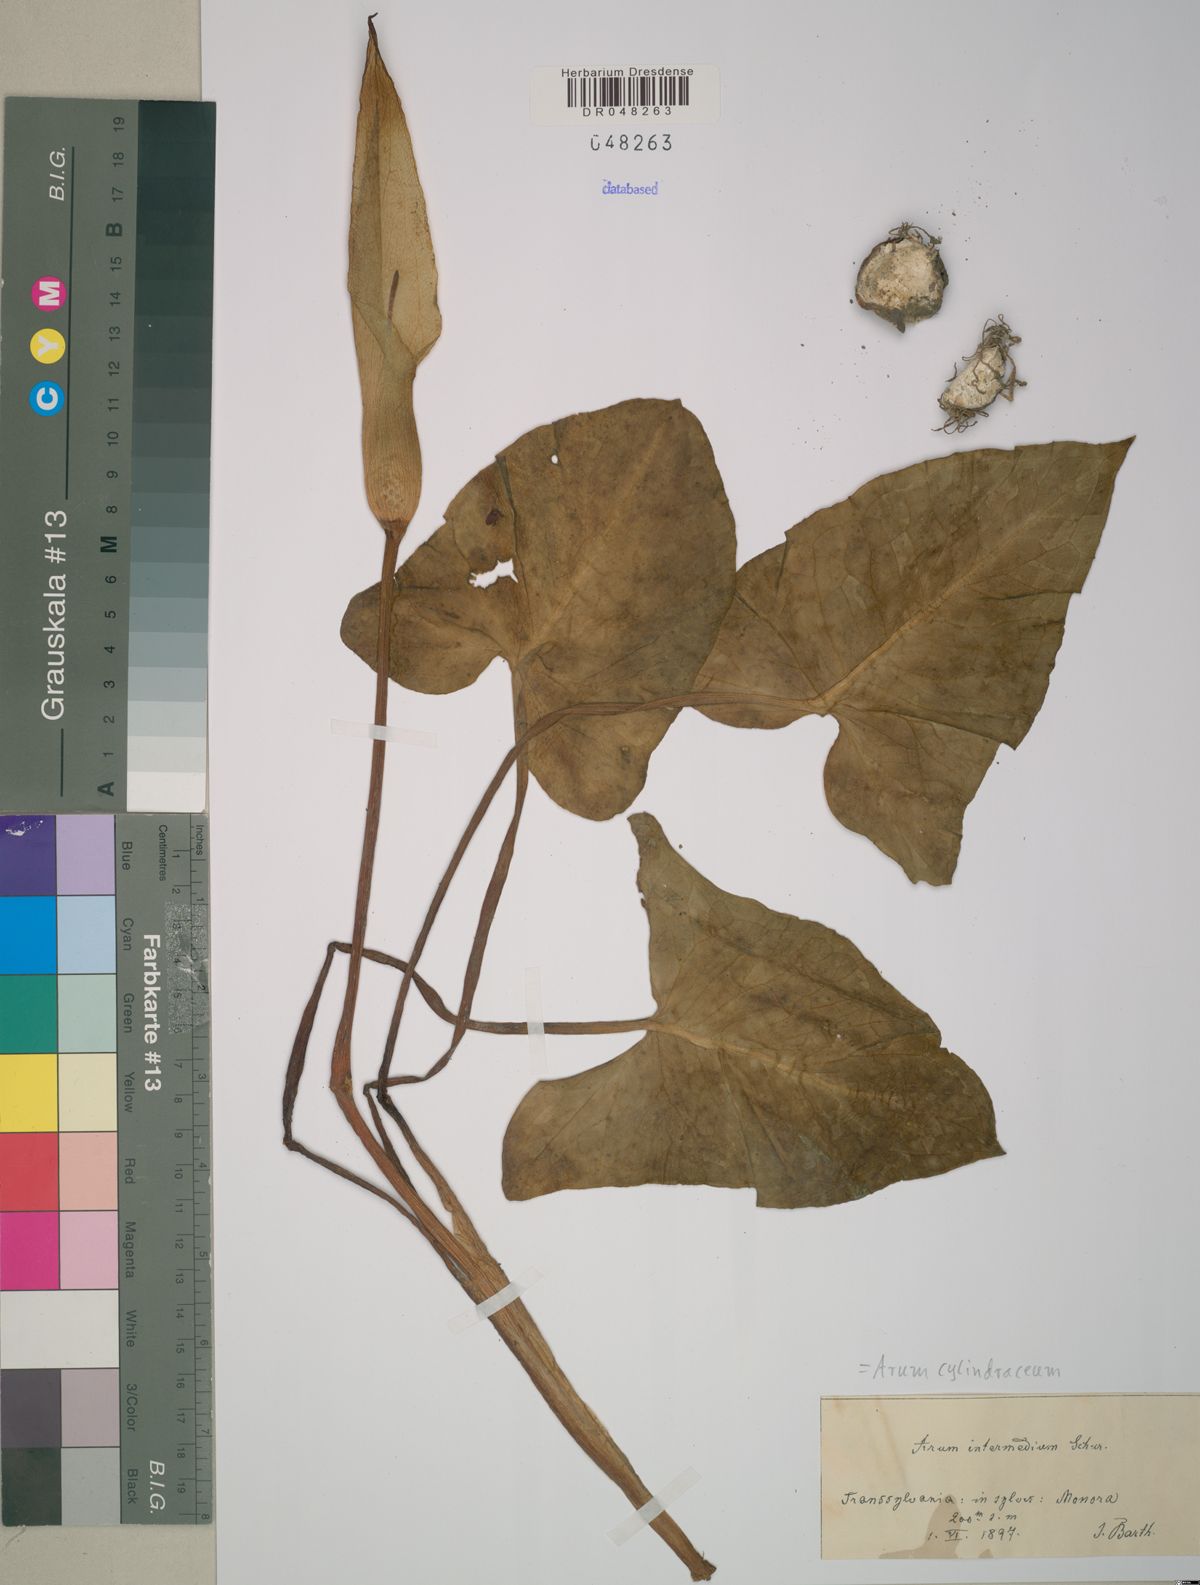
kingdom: Plantae
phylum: Tracheophyta
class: Liliopsida
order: Alismatales
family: Araceae
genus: Arum
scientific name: Arum cylindraceum
